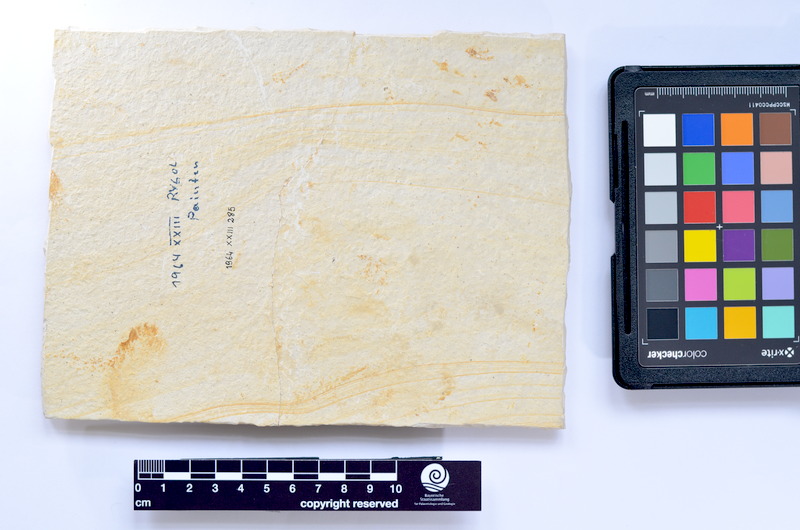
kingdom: Animalia
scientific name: Animalia
